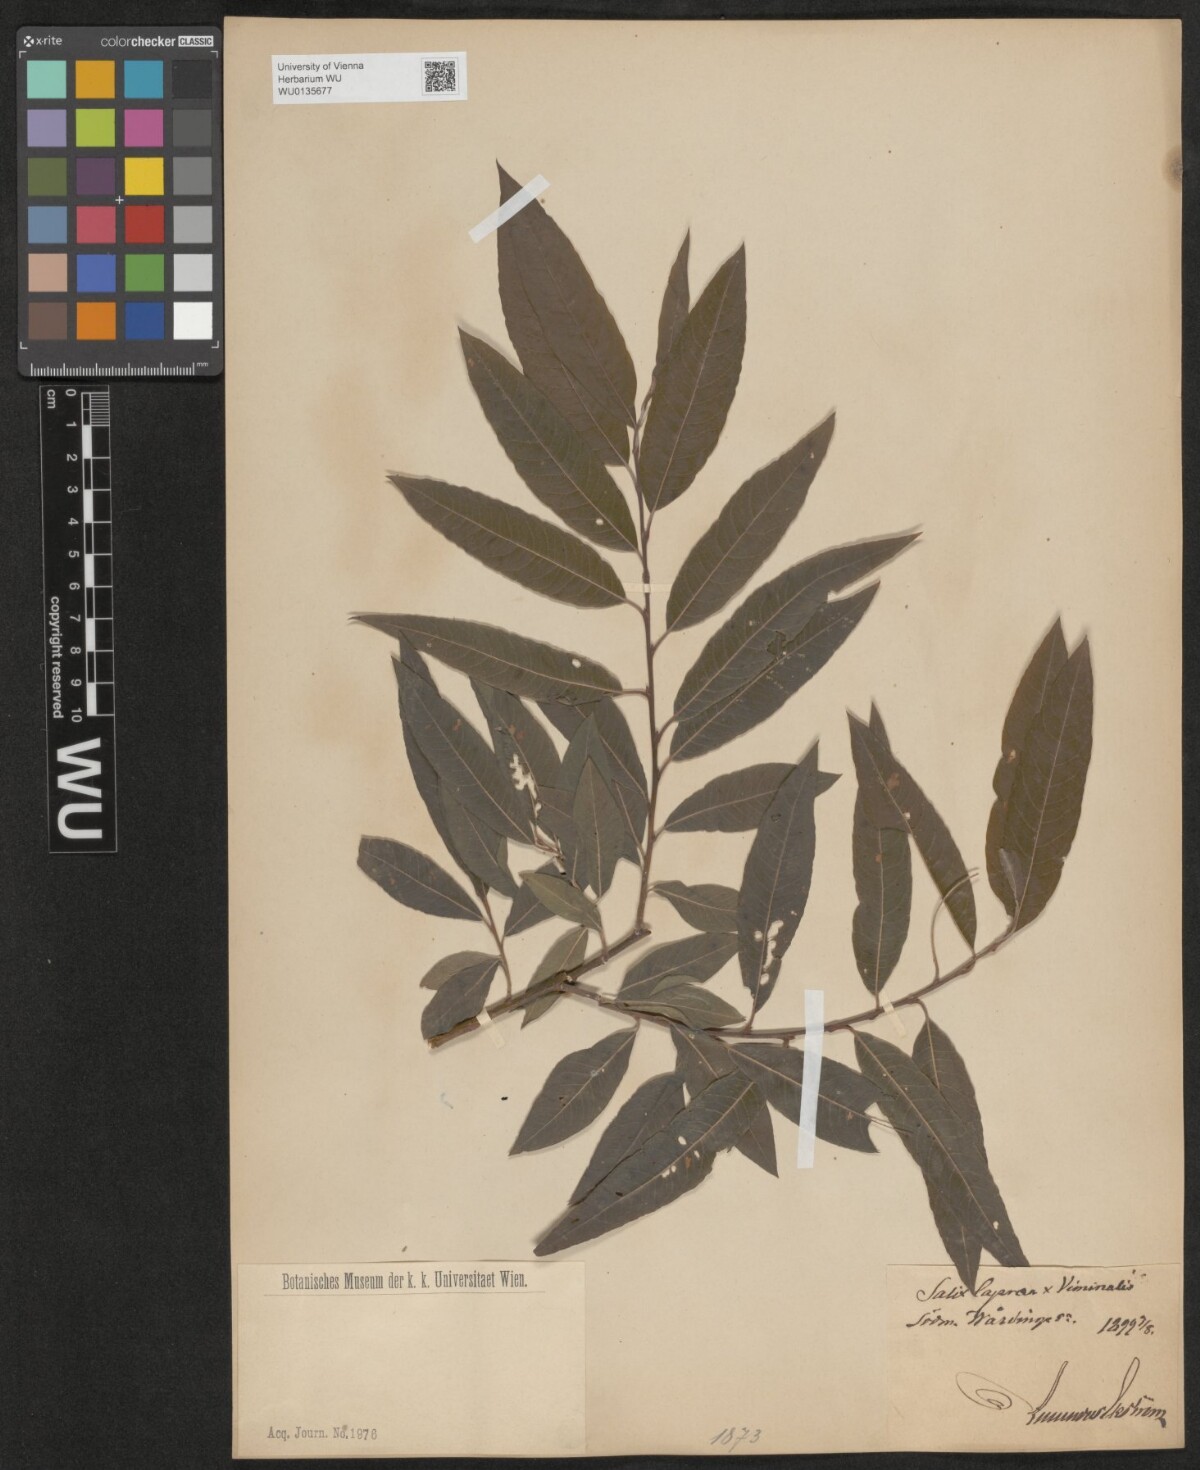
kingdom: Plantae
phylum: Tracheophyta
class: Magnoliopsida
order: Malpighiales
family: Salicaceae
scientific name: Salicaceae
